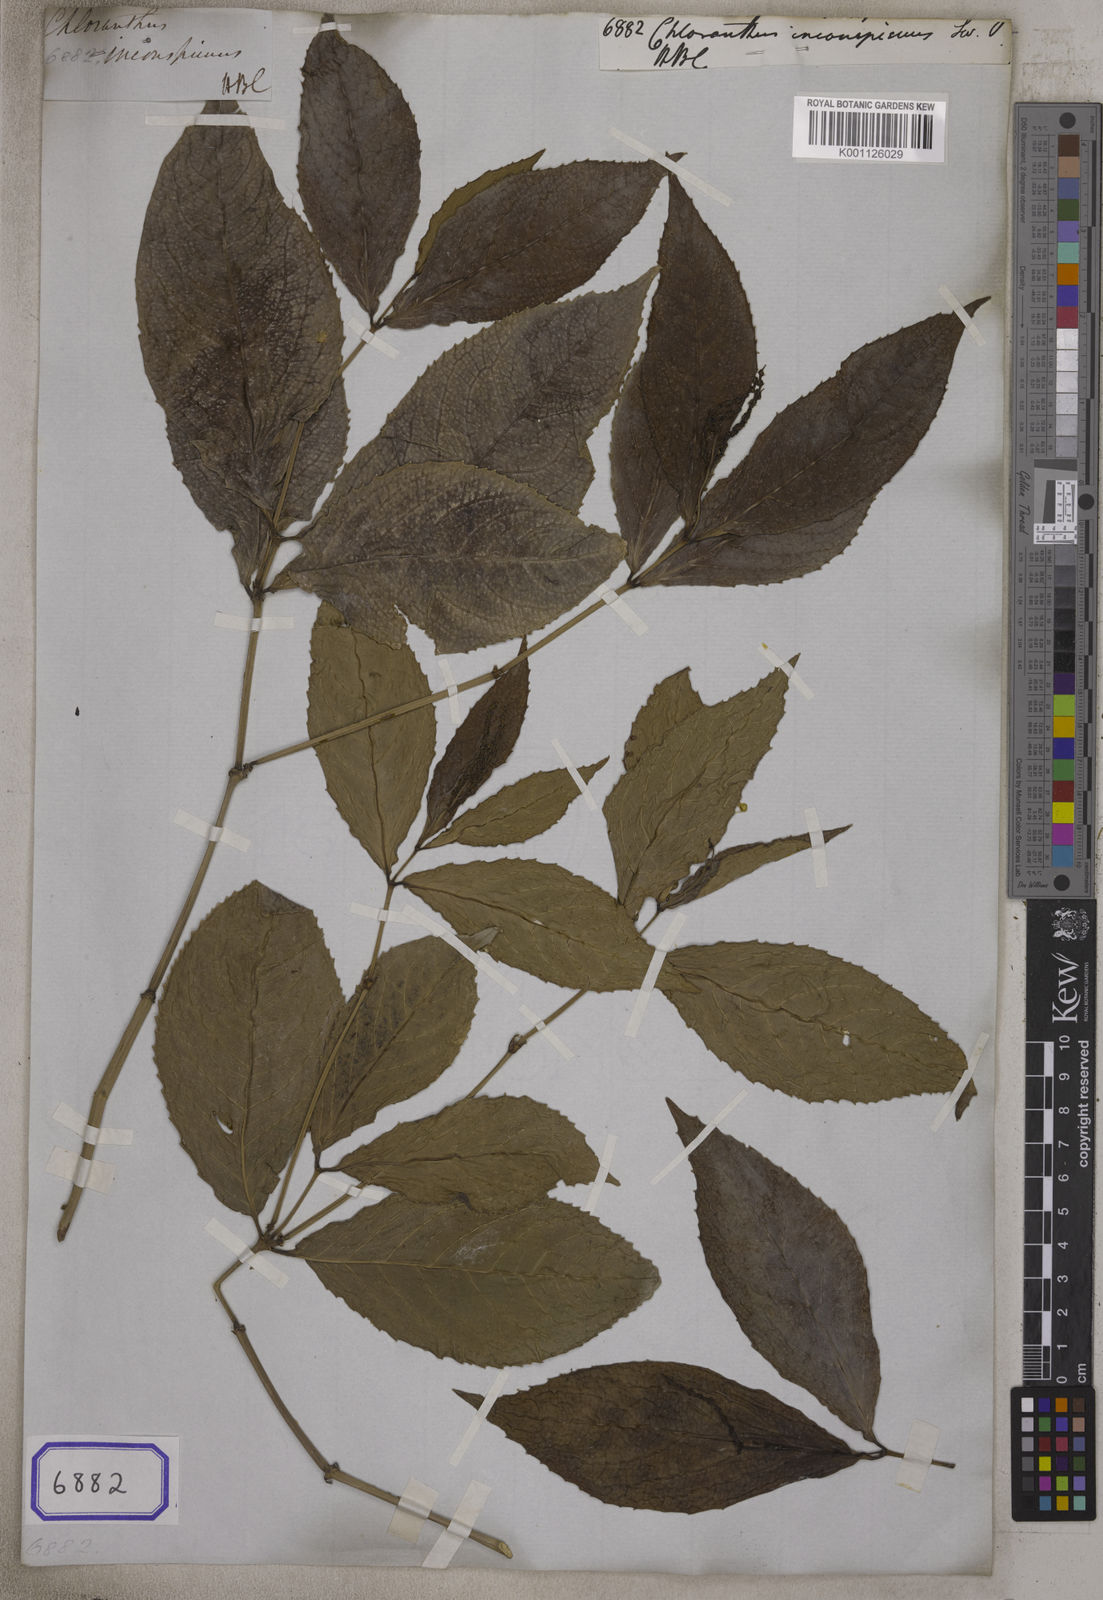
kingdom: Plantae
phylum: Tracheophyta
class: Magnoliopsida
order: Chloranthales
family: Chloranthaceae
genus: Chloranthus
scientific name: Chloranthus spicatus
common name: Chulantree
